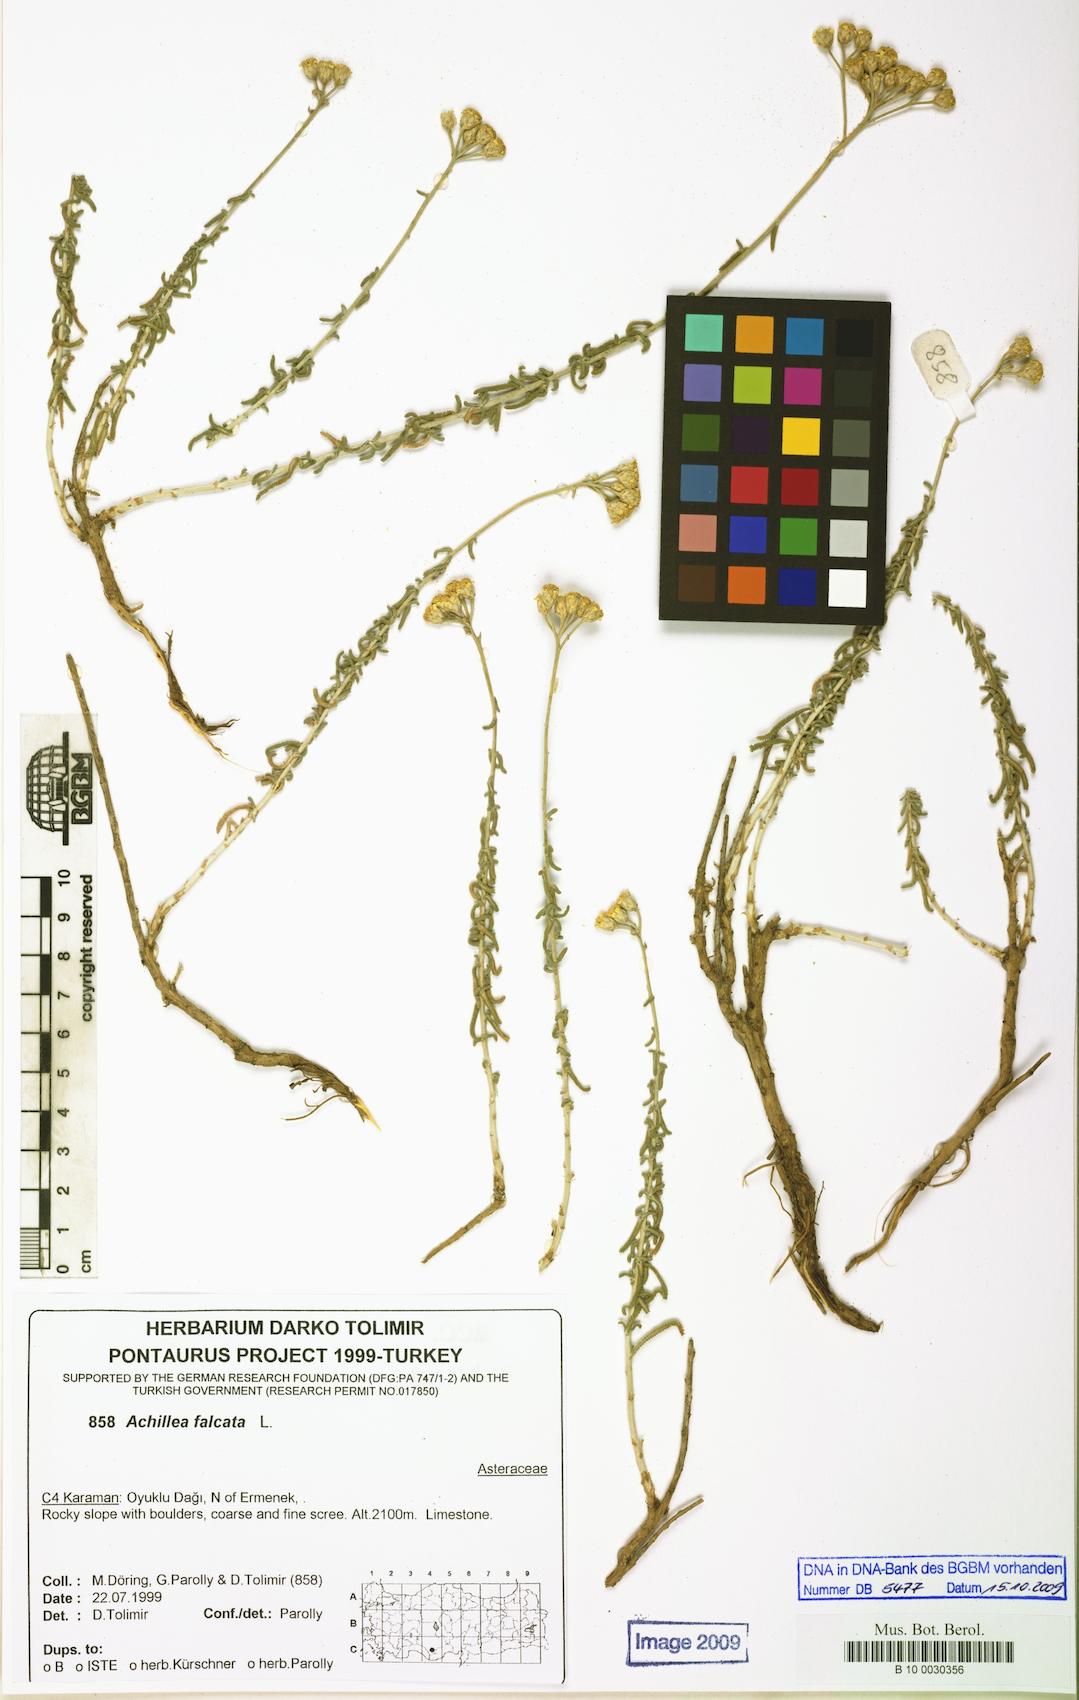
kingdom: Plantae
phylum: Tracheophyta
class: Magnoliopsida
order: Asterales
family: Asteraceae
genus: Achillea
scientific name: Achillea falcata
